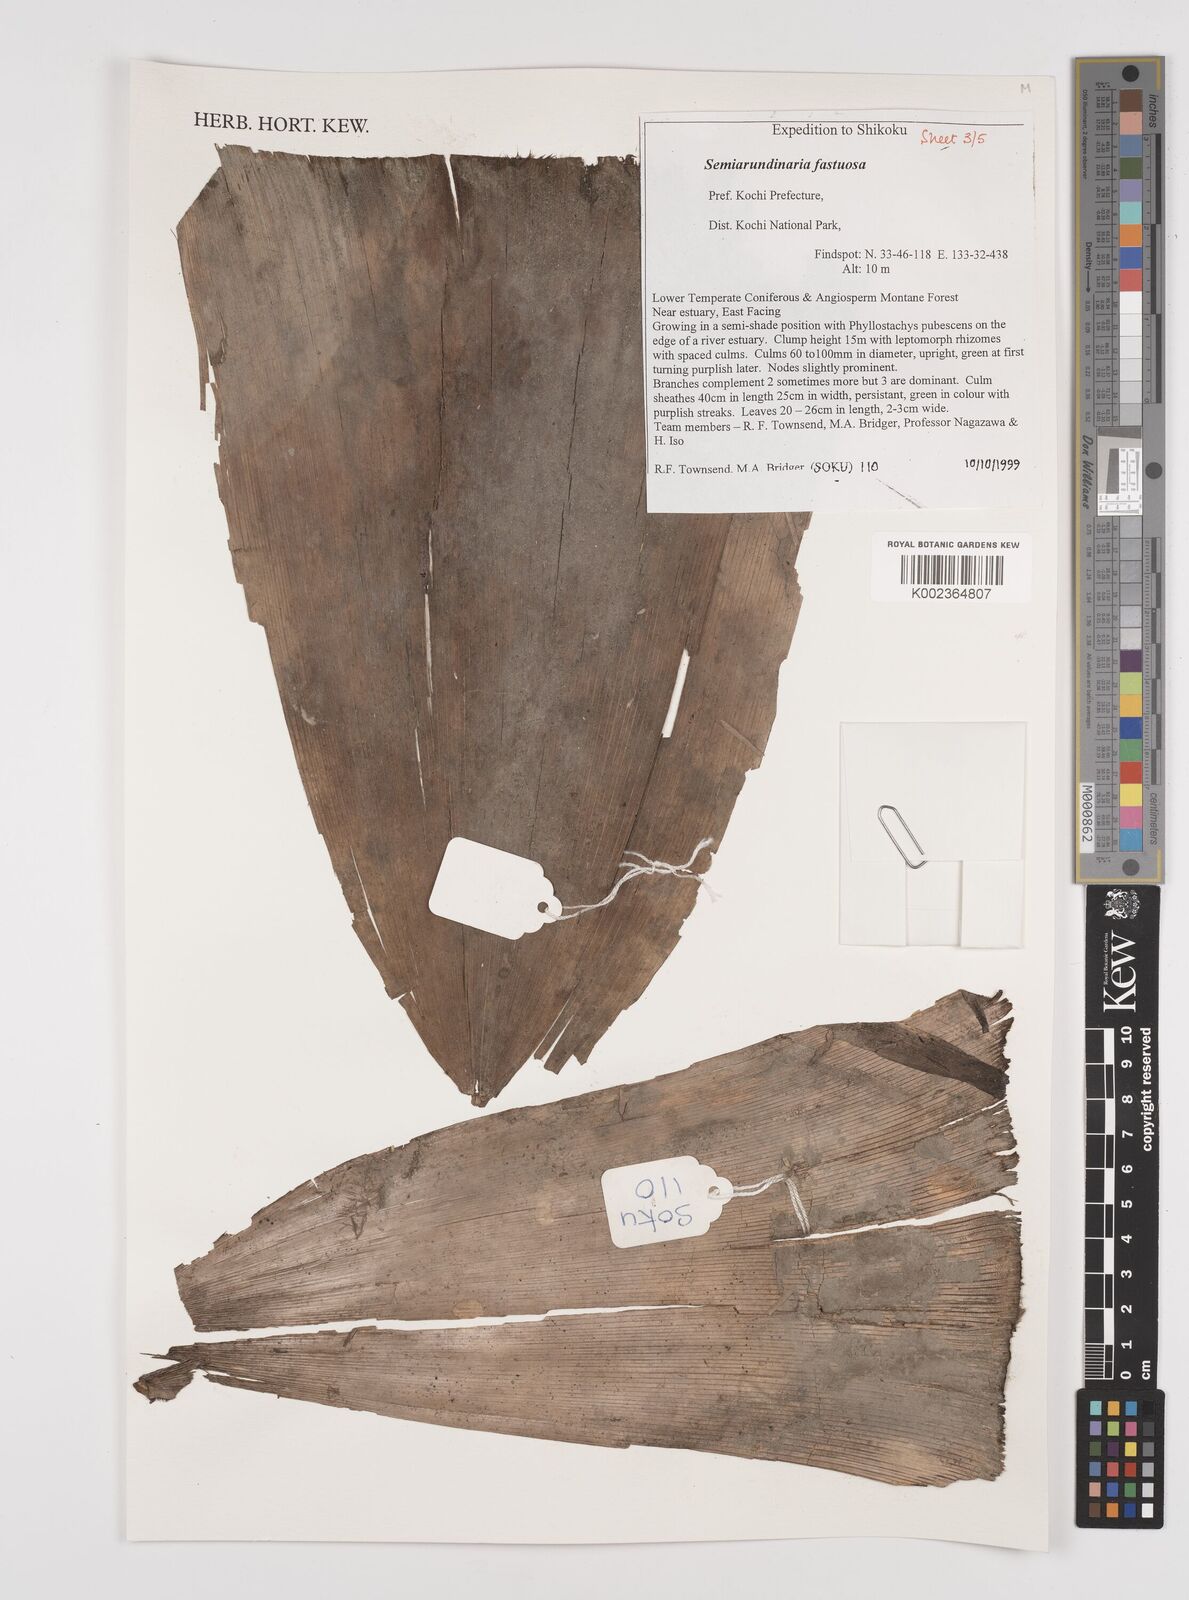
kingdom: Plantae
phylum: Tracheophyta
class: Liliopsida
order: Poales
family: Poaceae
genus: Semiarundinaria
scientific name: Semiarundinaria fastuosa
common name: Narihira bamboo
